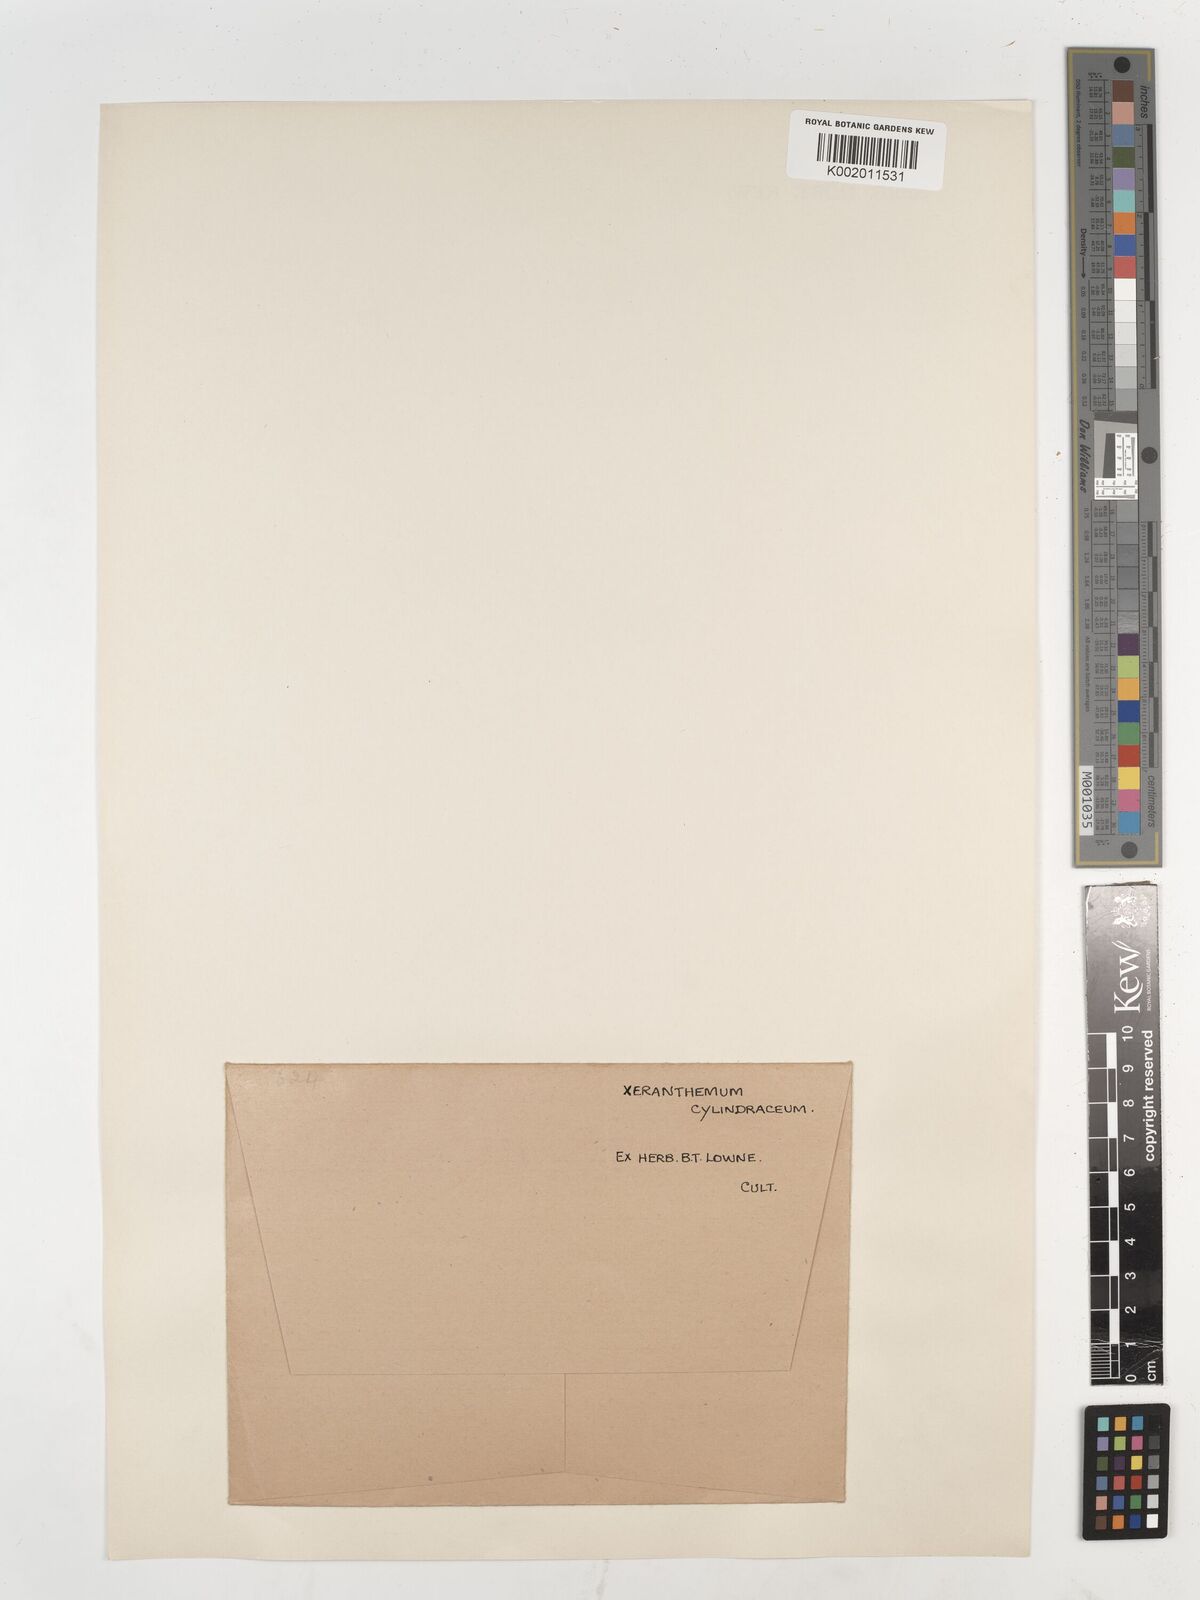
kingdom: Plantae
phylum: Tracheophyta
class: Magnoliopsida
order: Asterales
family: Asteraceae
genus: Xeranthemum
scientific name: Xeranthemum
